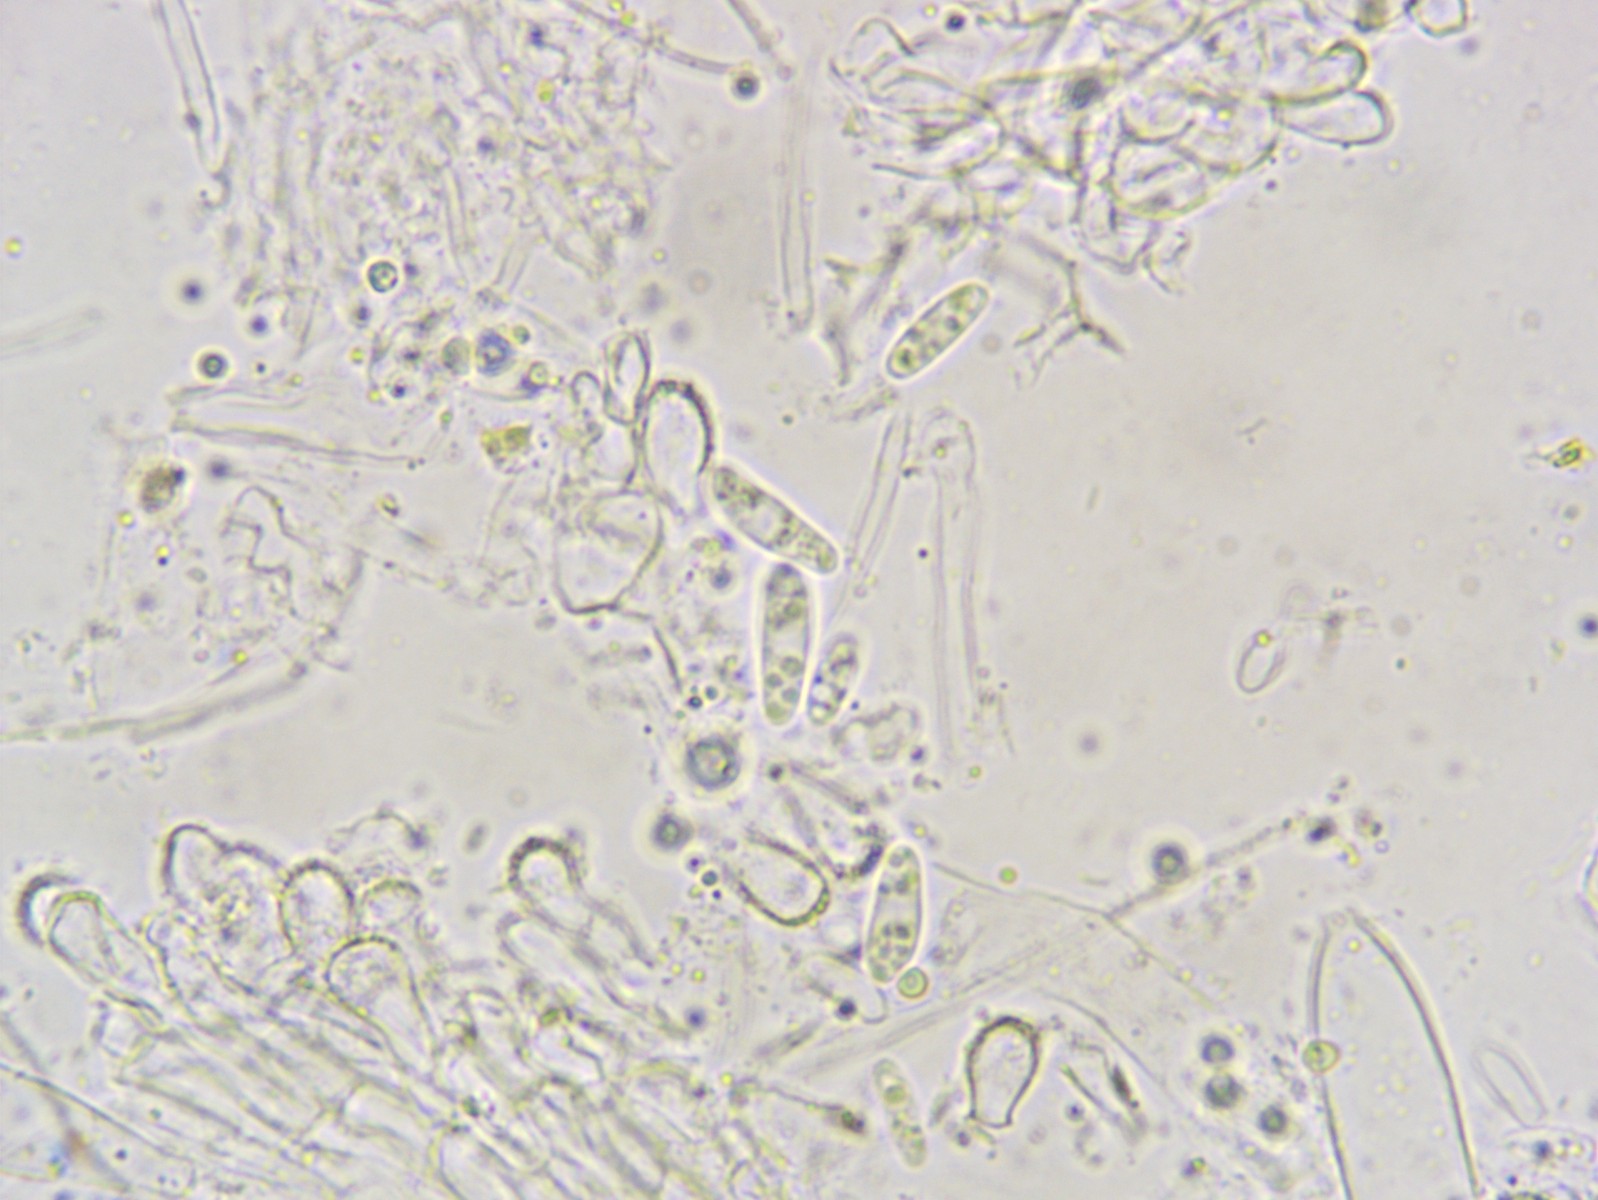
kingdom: Fungi
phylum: Ascomycota
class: Leotiomycetes
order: Helotiales
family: Hyaloscyphaceae
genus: Hyaloscypha
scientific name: Hyaloscypha
